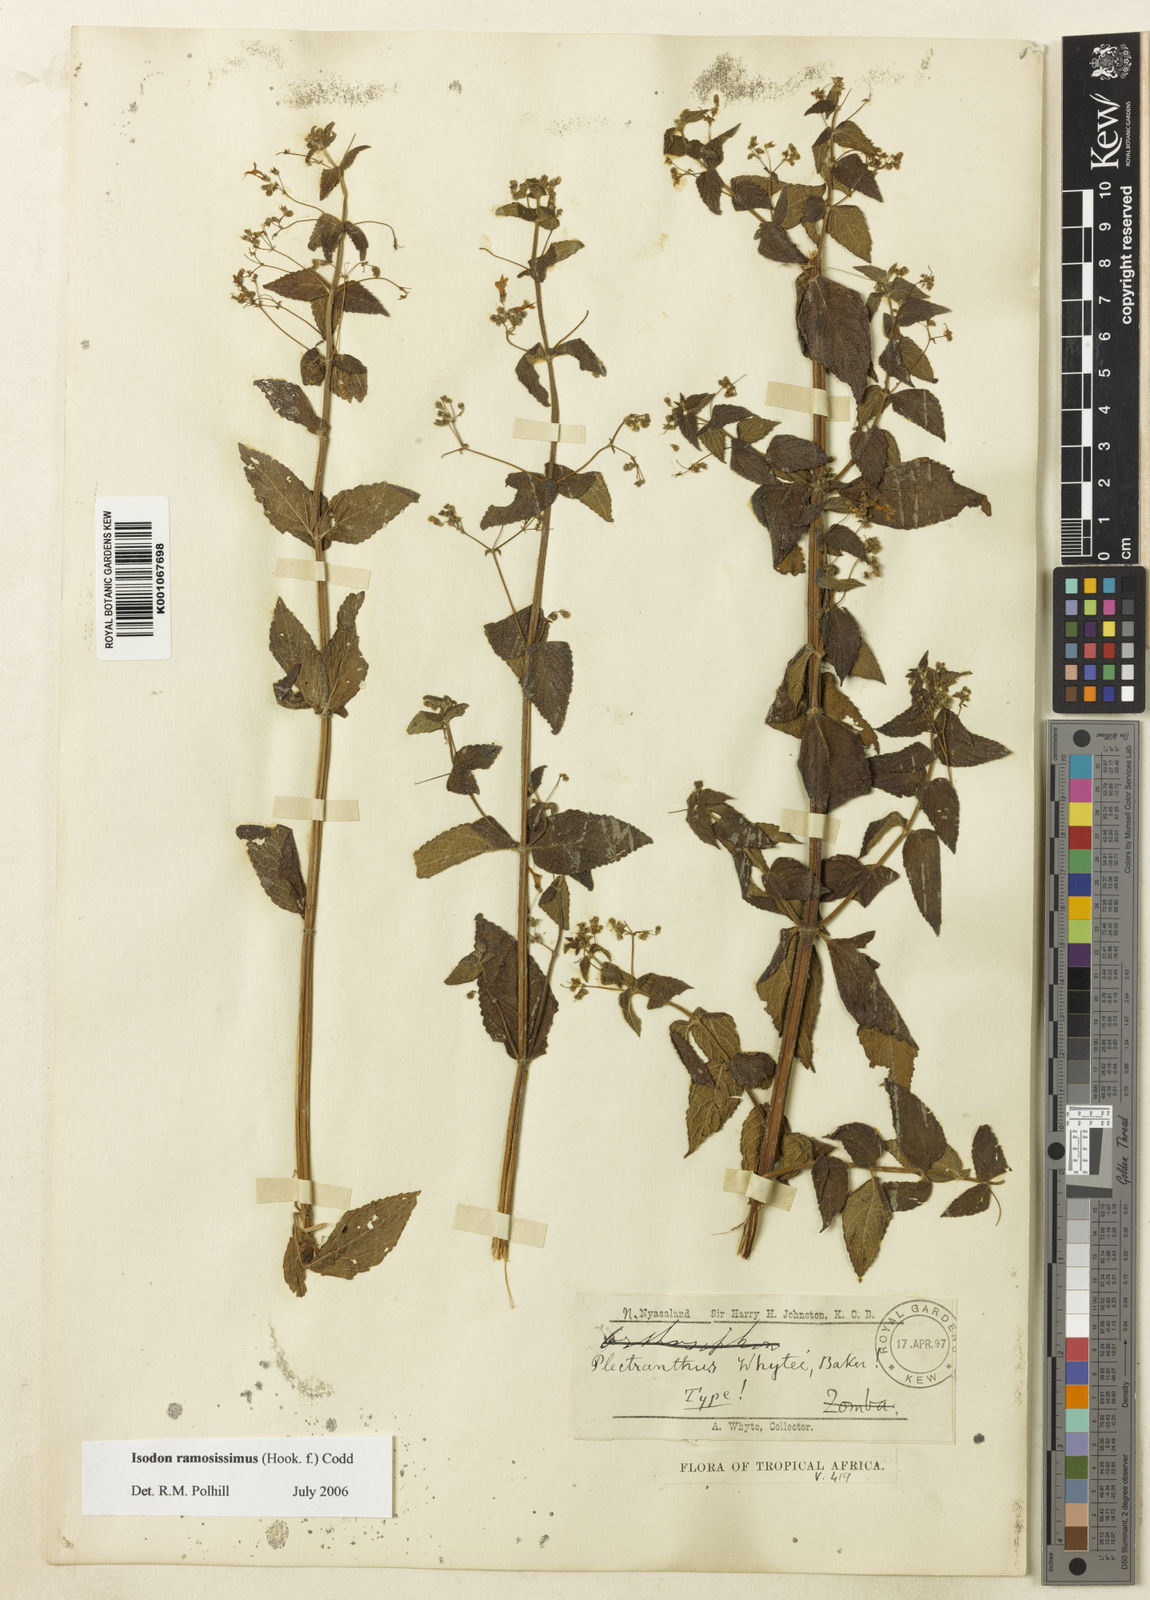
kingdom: Plantae
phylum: Tracheophyta
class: Magnoliopsida
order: Lamiales
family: Lamiaceae
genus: Isodon
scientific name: Isodon ramosissimus
